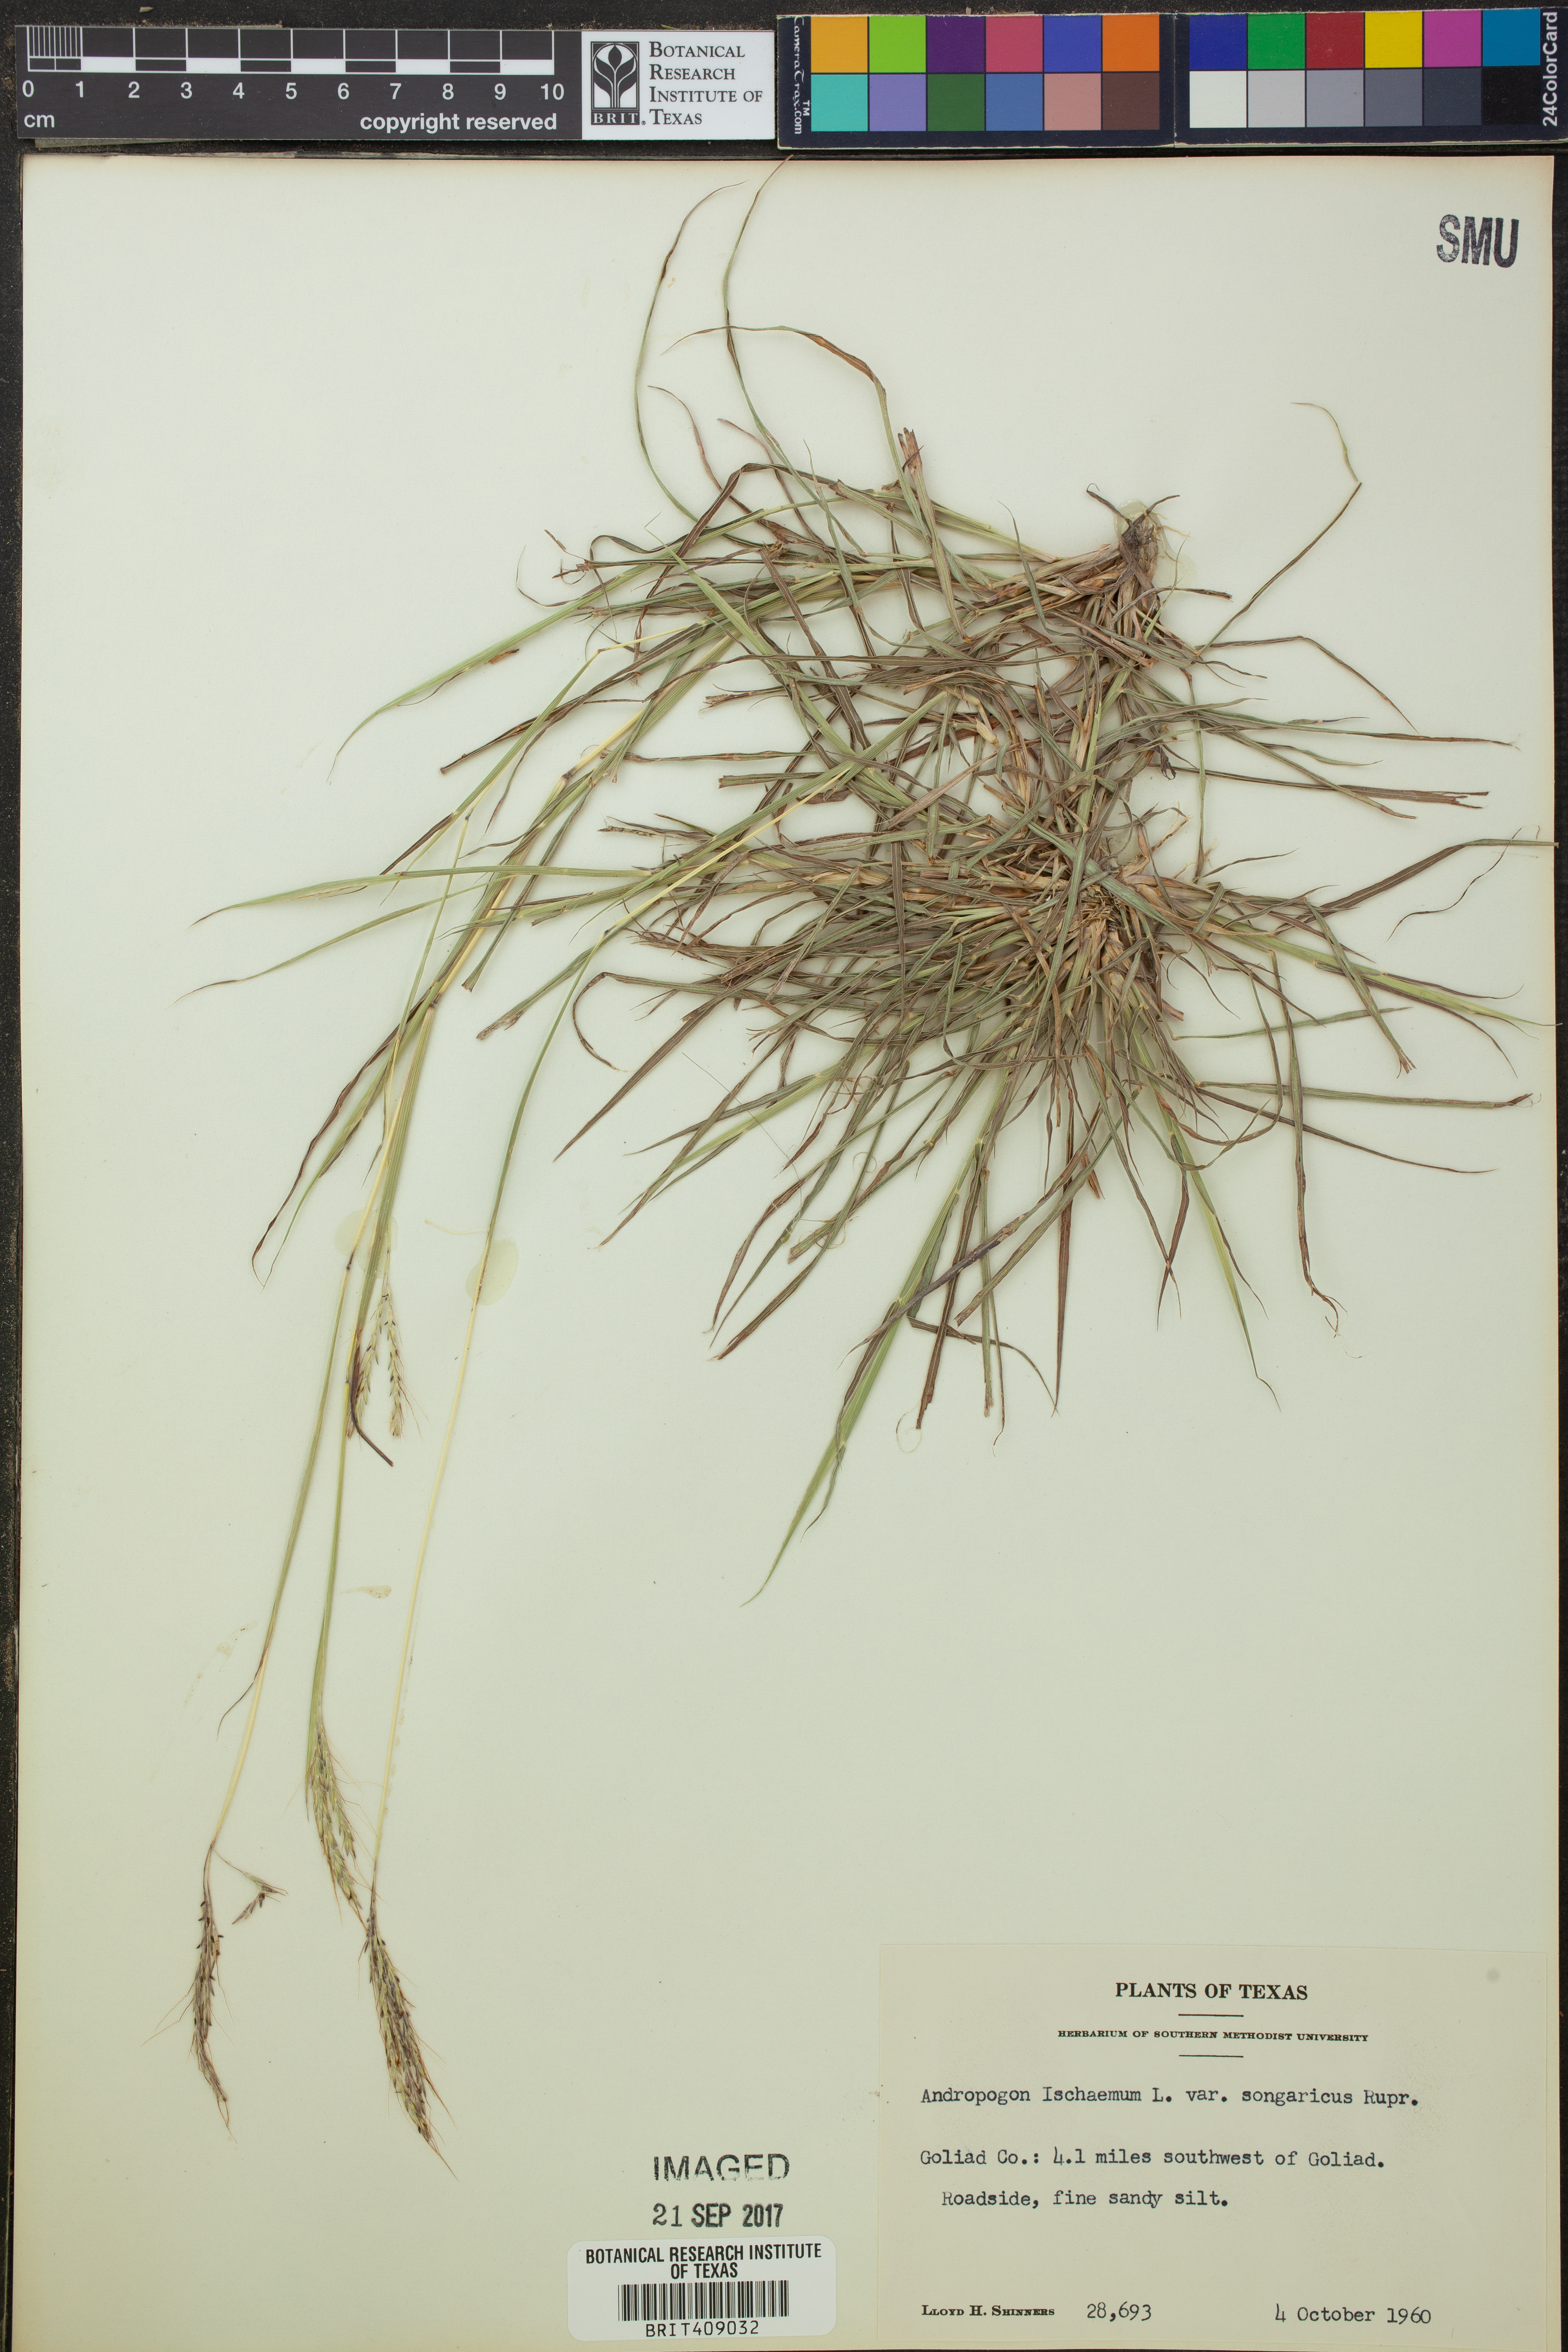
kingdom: Plantae
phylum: Tracheophyta
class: Liliopsida
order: Poales
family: Poaceae
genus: Bothriochloa
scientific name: Bothriochloa ischaemum
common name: Yellow bluestem
